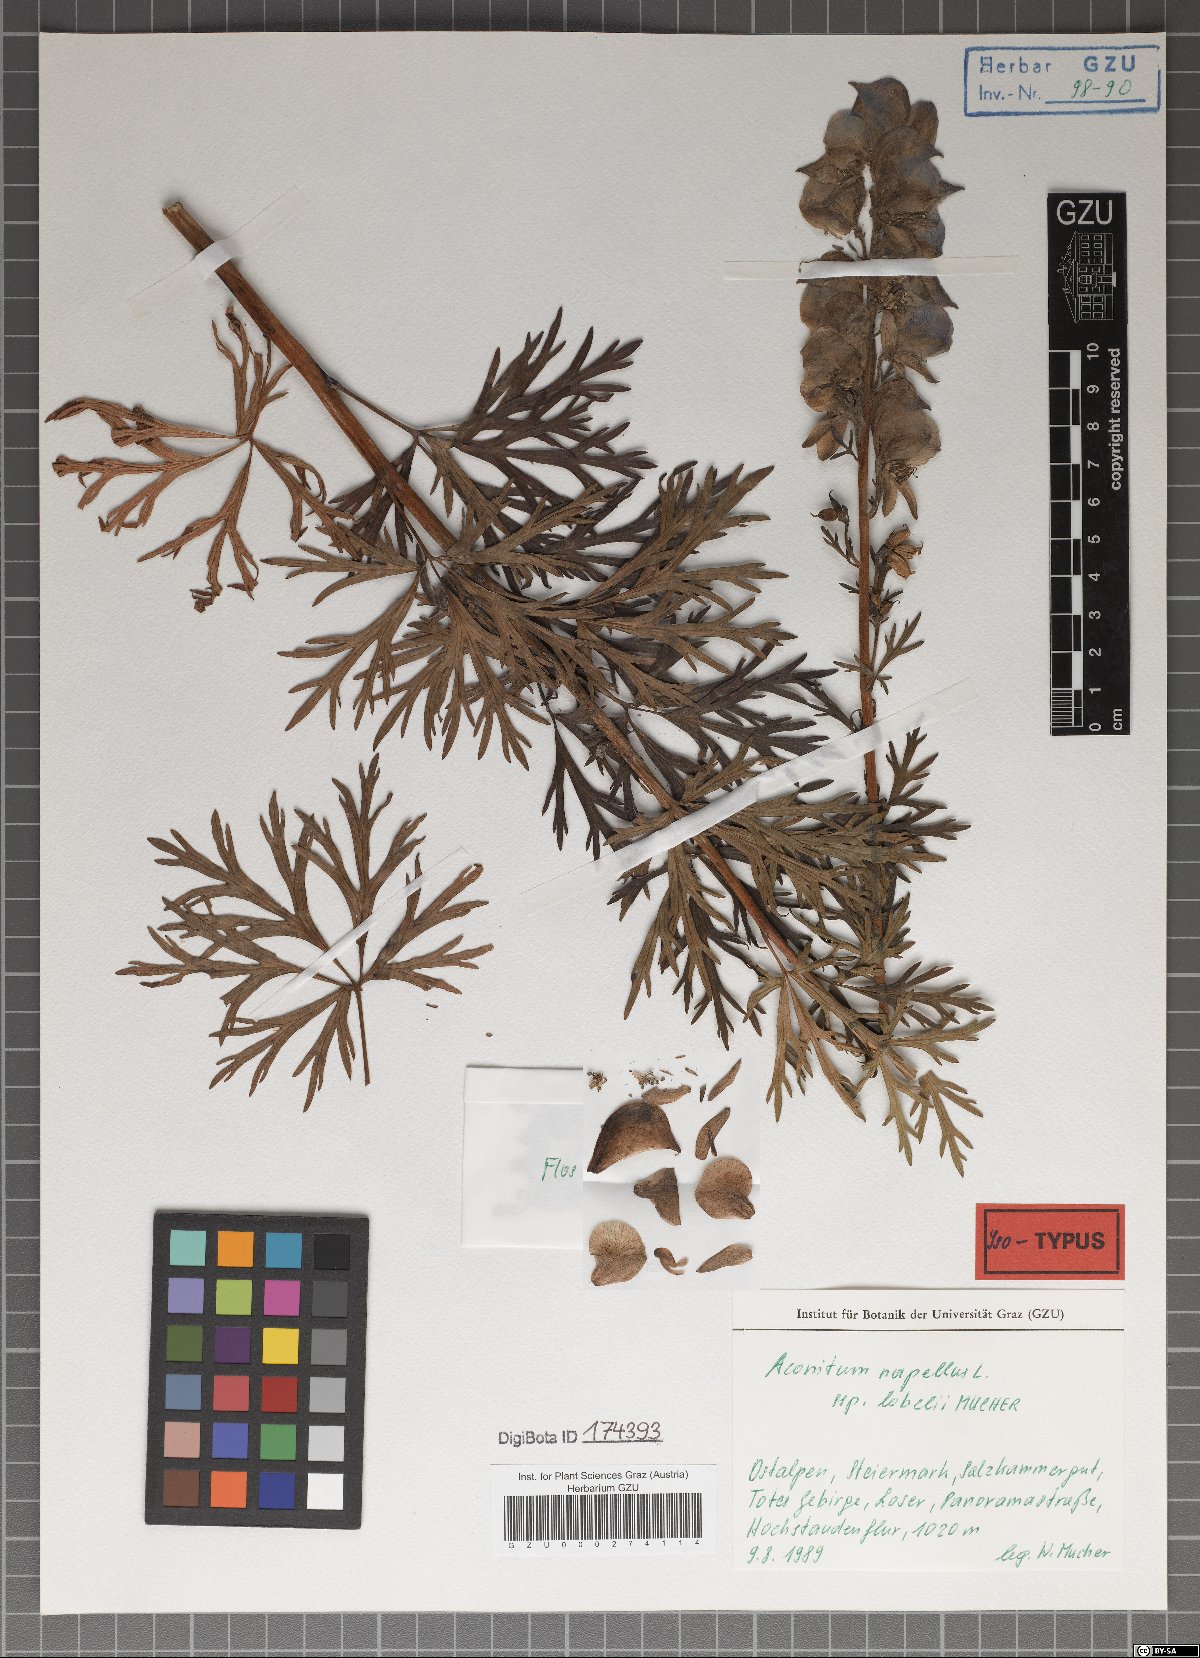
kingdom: Plantae
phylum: Tracheophyta
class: Magnoliopsida
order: Ranunculales
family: Ranunculaceae
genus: Aconitum
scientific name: Aconitum napellus
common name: Garden monkshood
